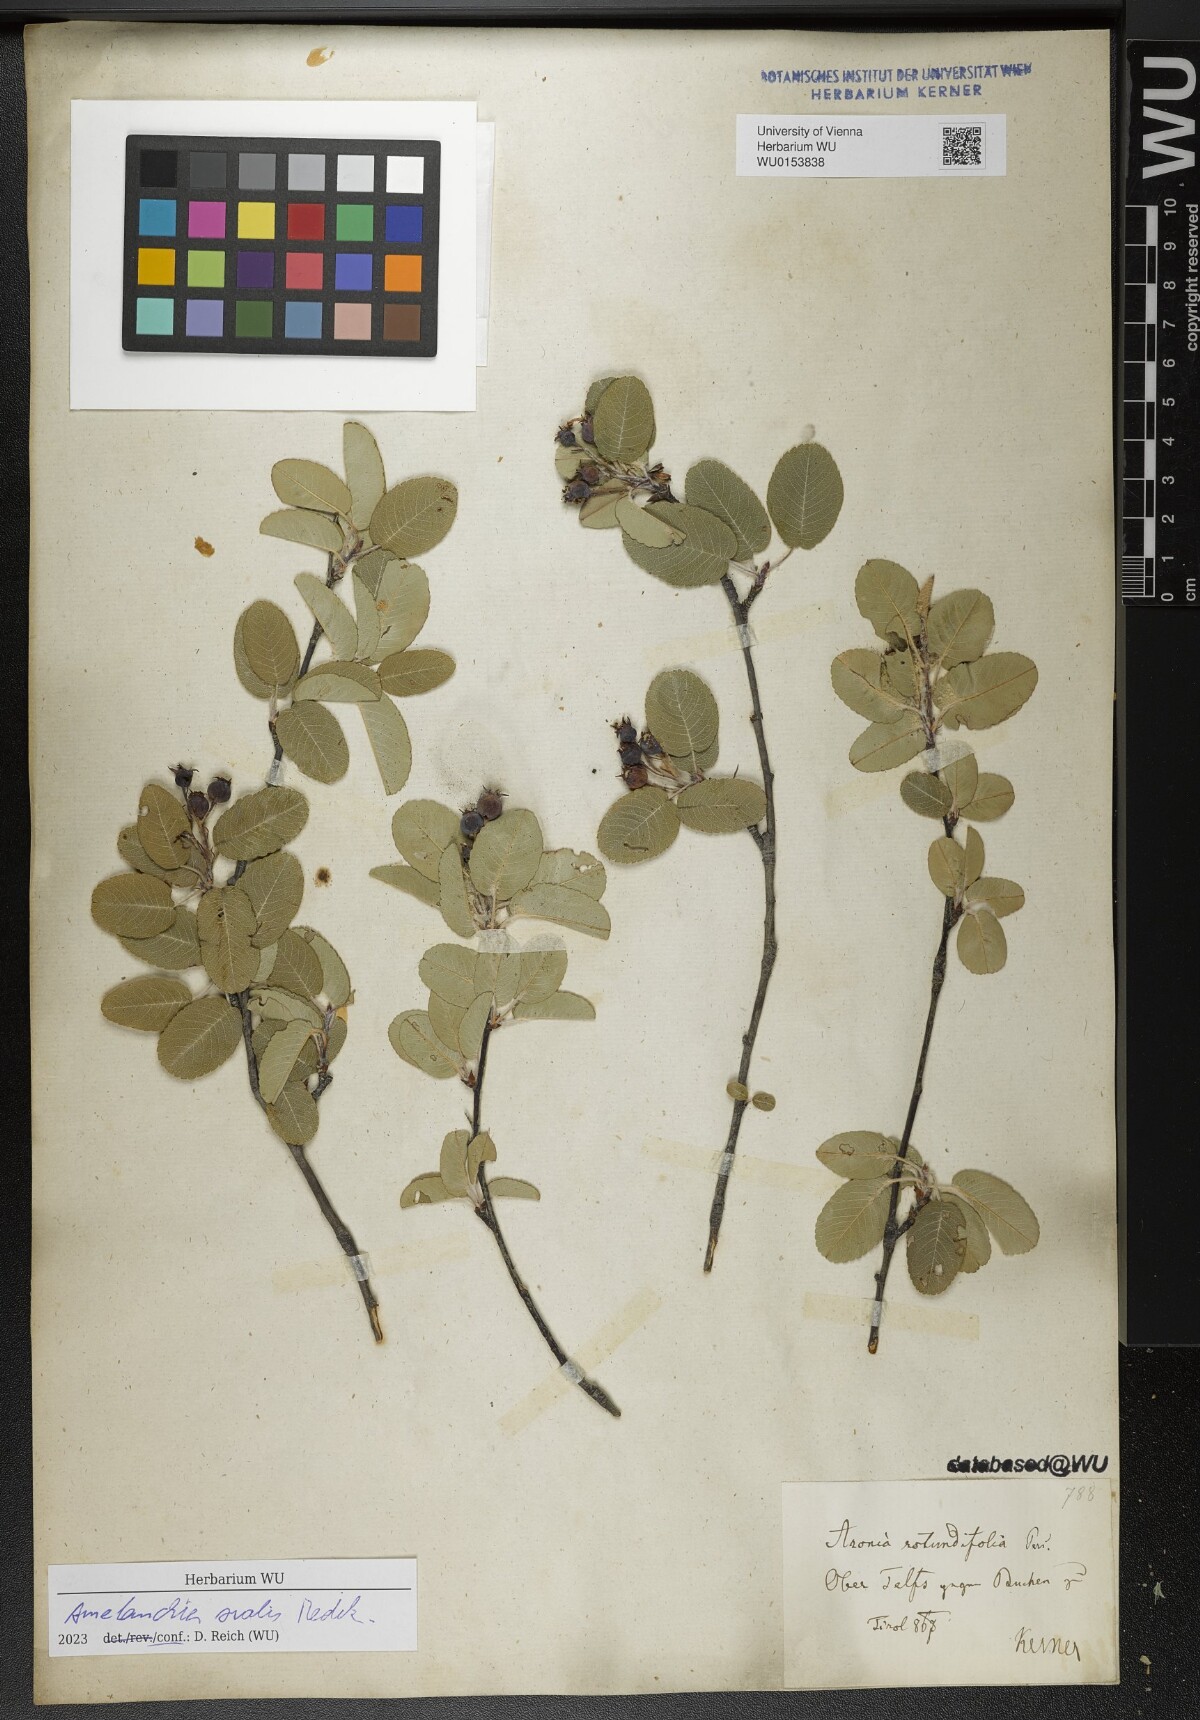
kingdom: Plantae
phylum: Tracheophyta
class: Magnoliopsida
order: Rosales
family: Rosaceae
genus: Amelanchier
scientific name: Amelanchier ovalis
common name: Serviceberry
